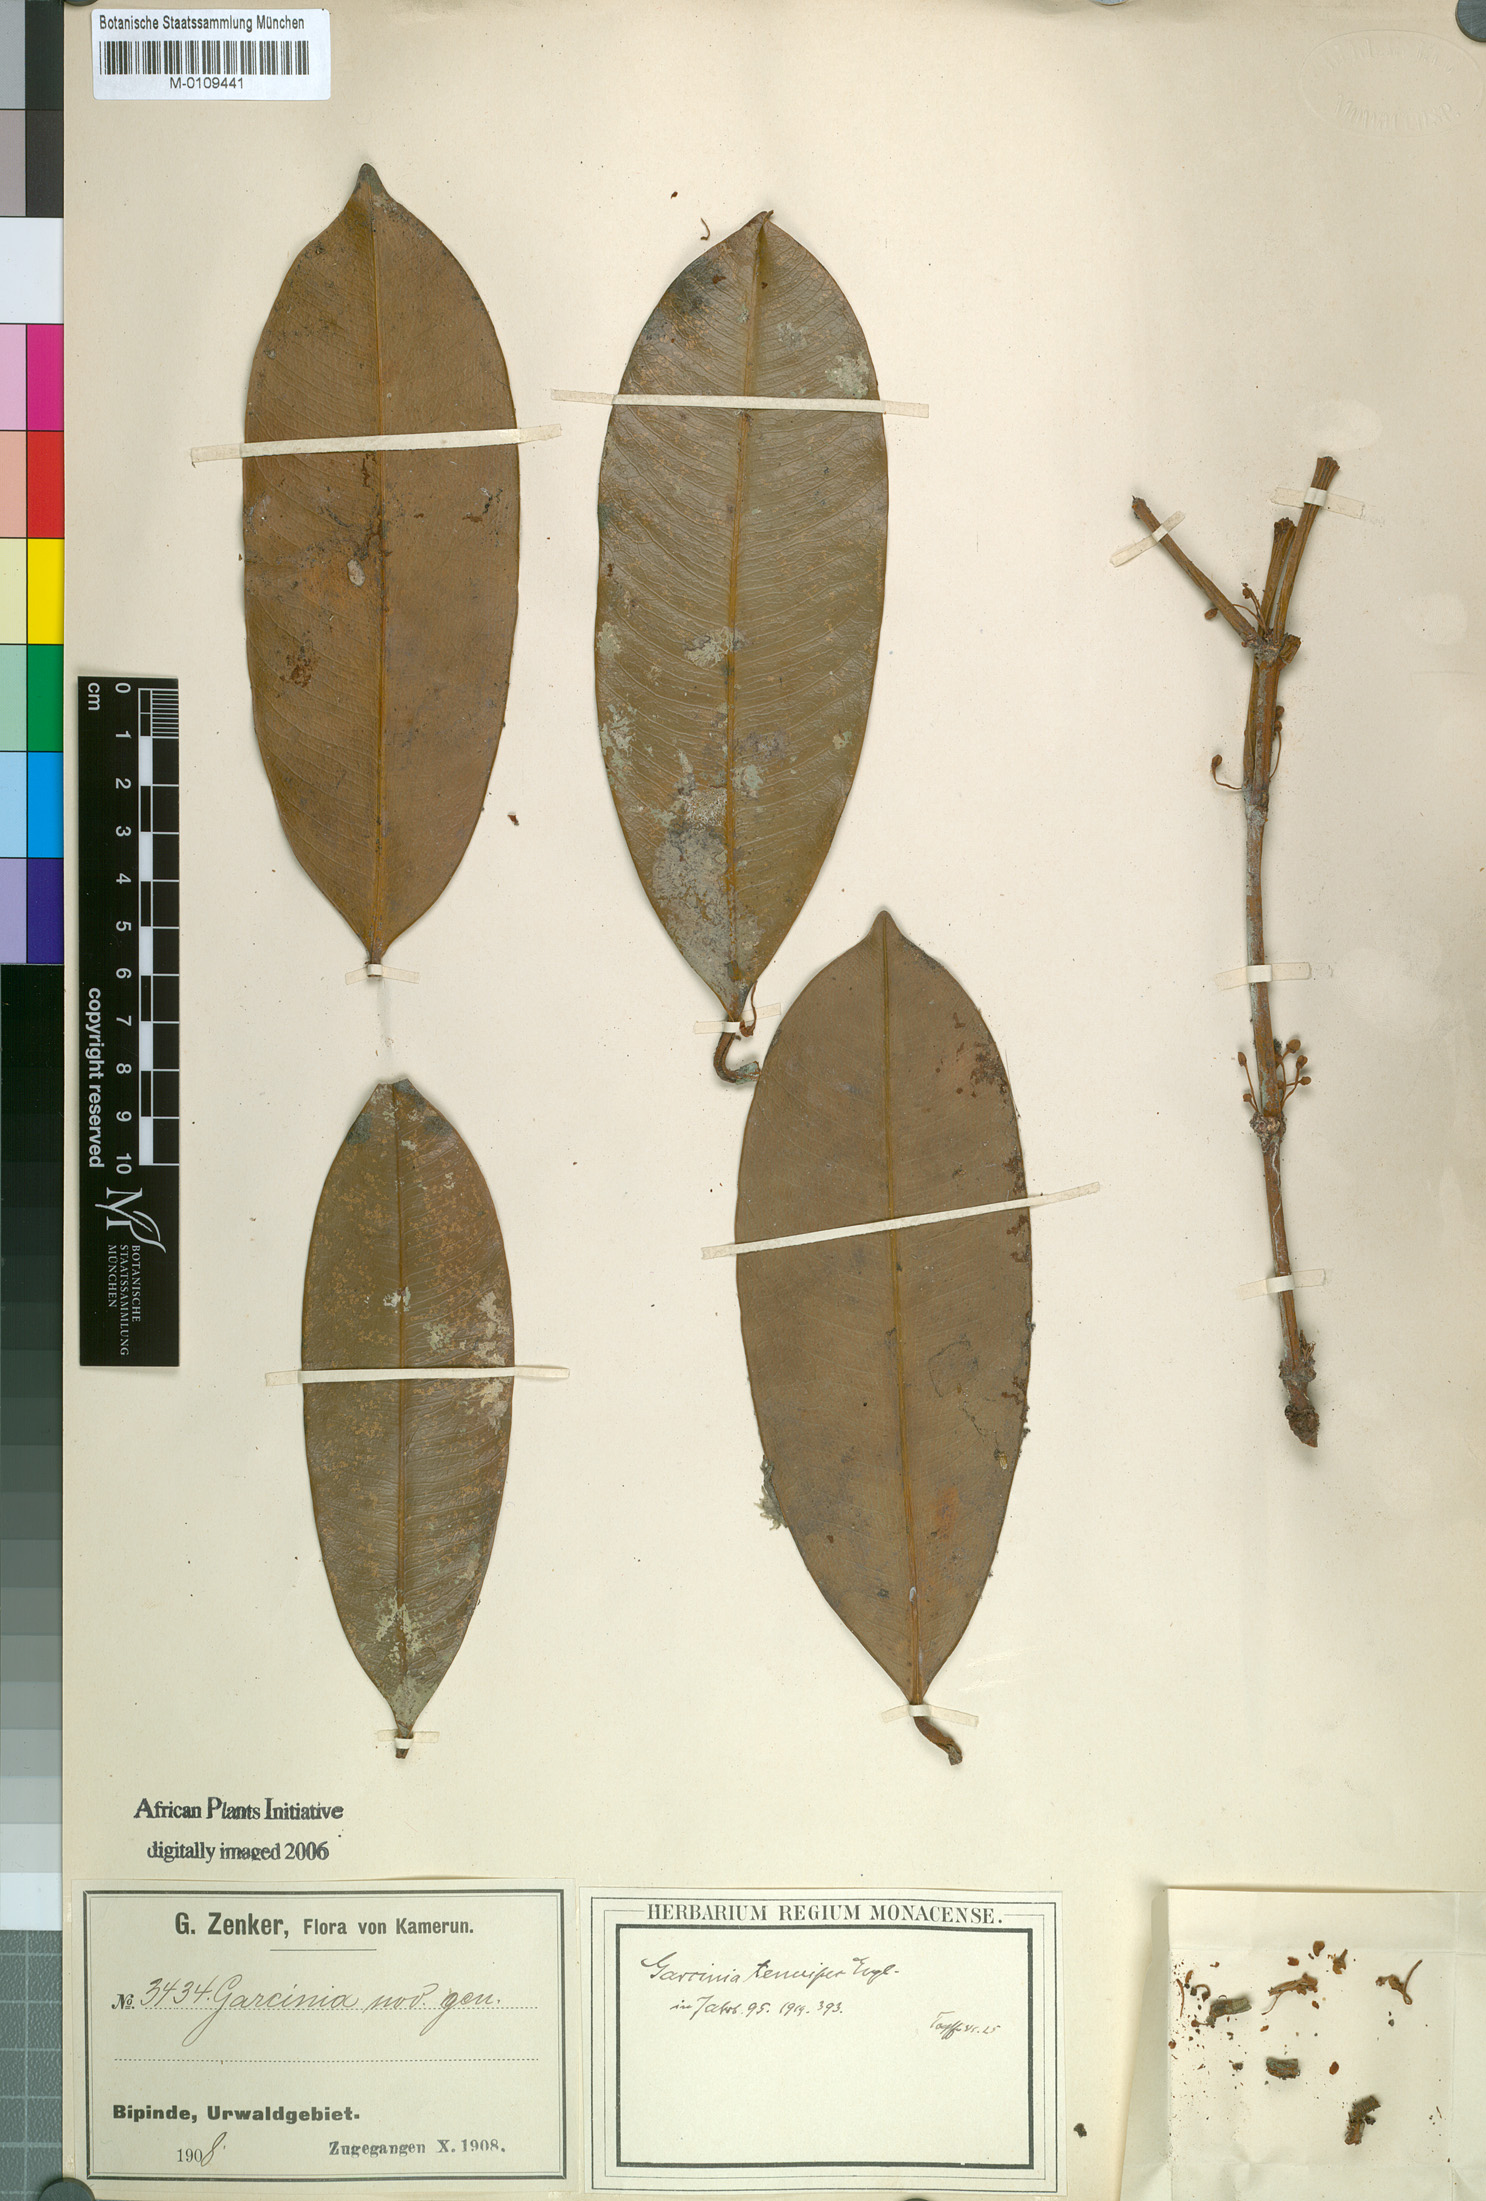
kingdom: Plantae
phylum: Tracheophyta
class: Magnoliopsida
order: Malpighiales
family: Clusiaceae
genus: Garcinia
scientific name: Garcinia smeathmannii
